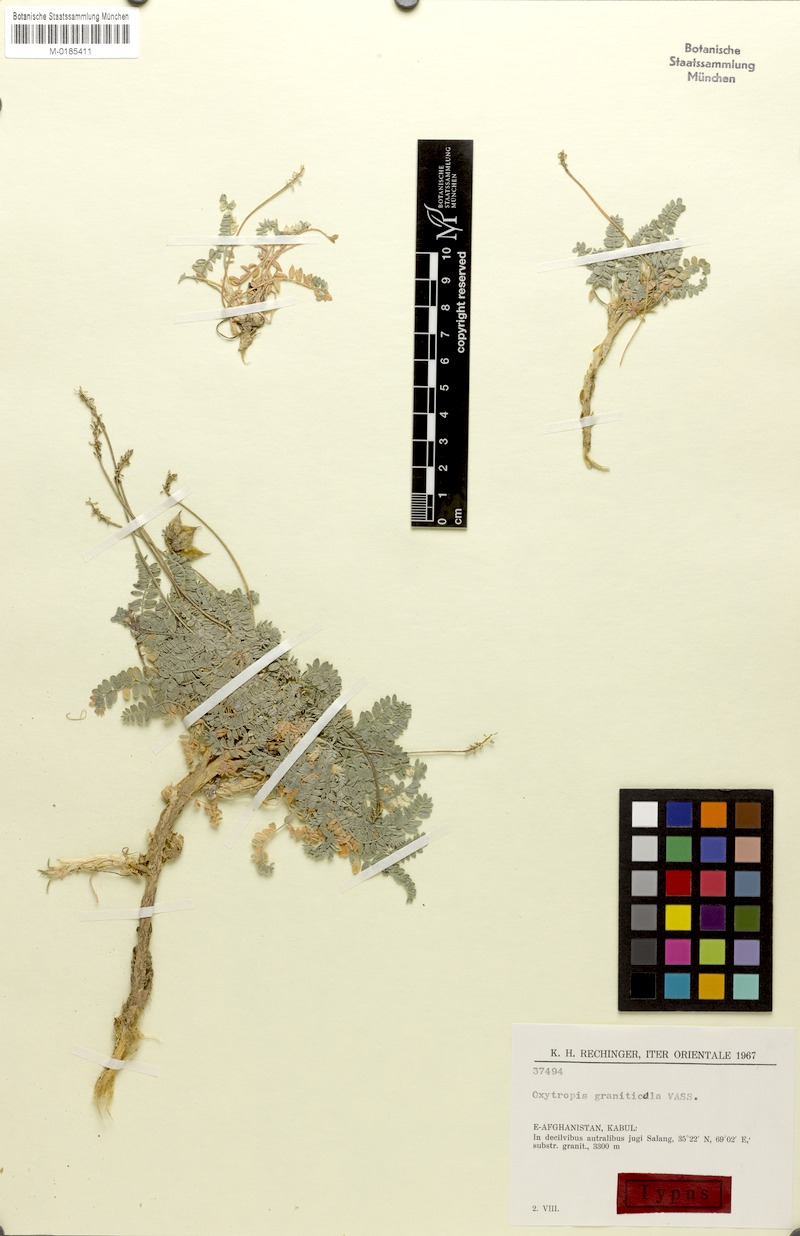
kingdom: Plantae
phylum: Tracheophyta
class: Magnoliopsida
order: Fabales
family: Fabaceae
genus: Oxytropis
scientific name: Oxytropis griffithii
